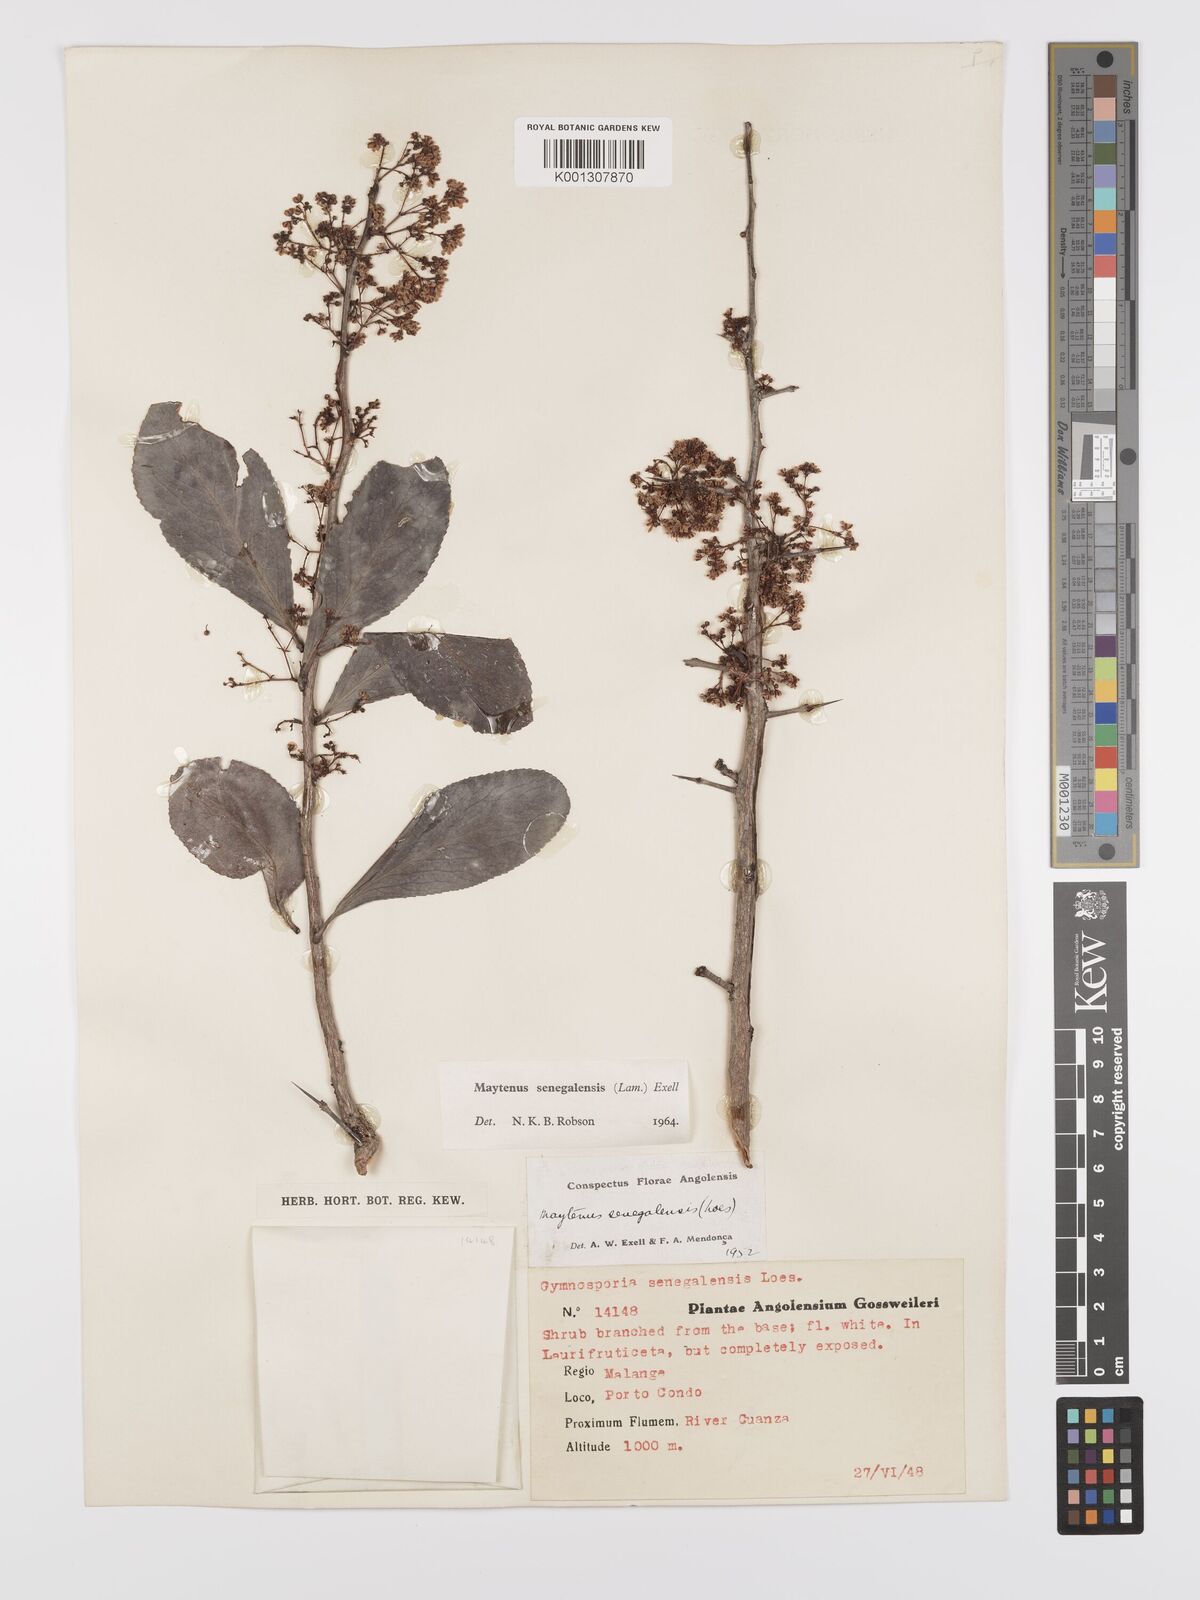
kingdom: Plantae
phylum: Tracheophyta
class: Magnoliopsida
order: Celastrales
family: Celastraceae
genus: Gymnosporia
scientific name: Gymnosporia senegalensis
